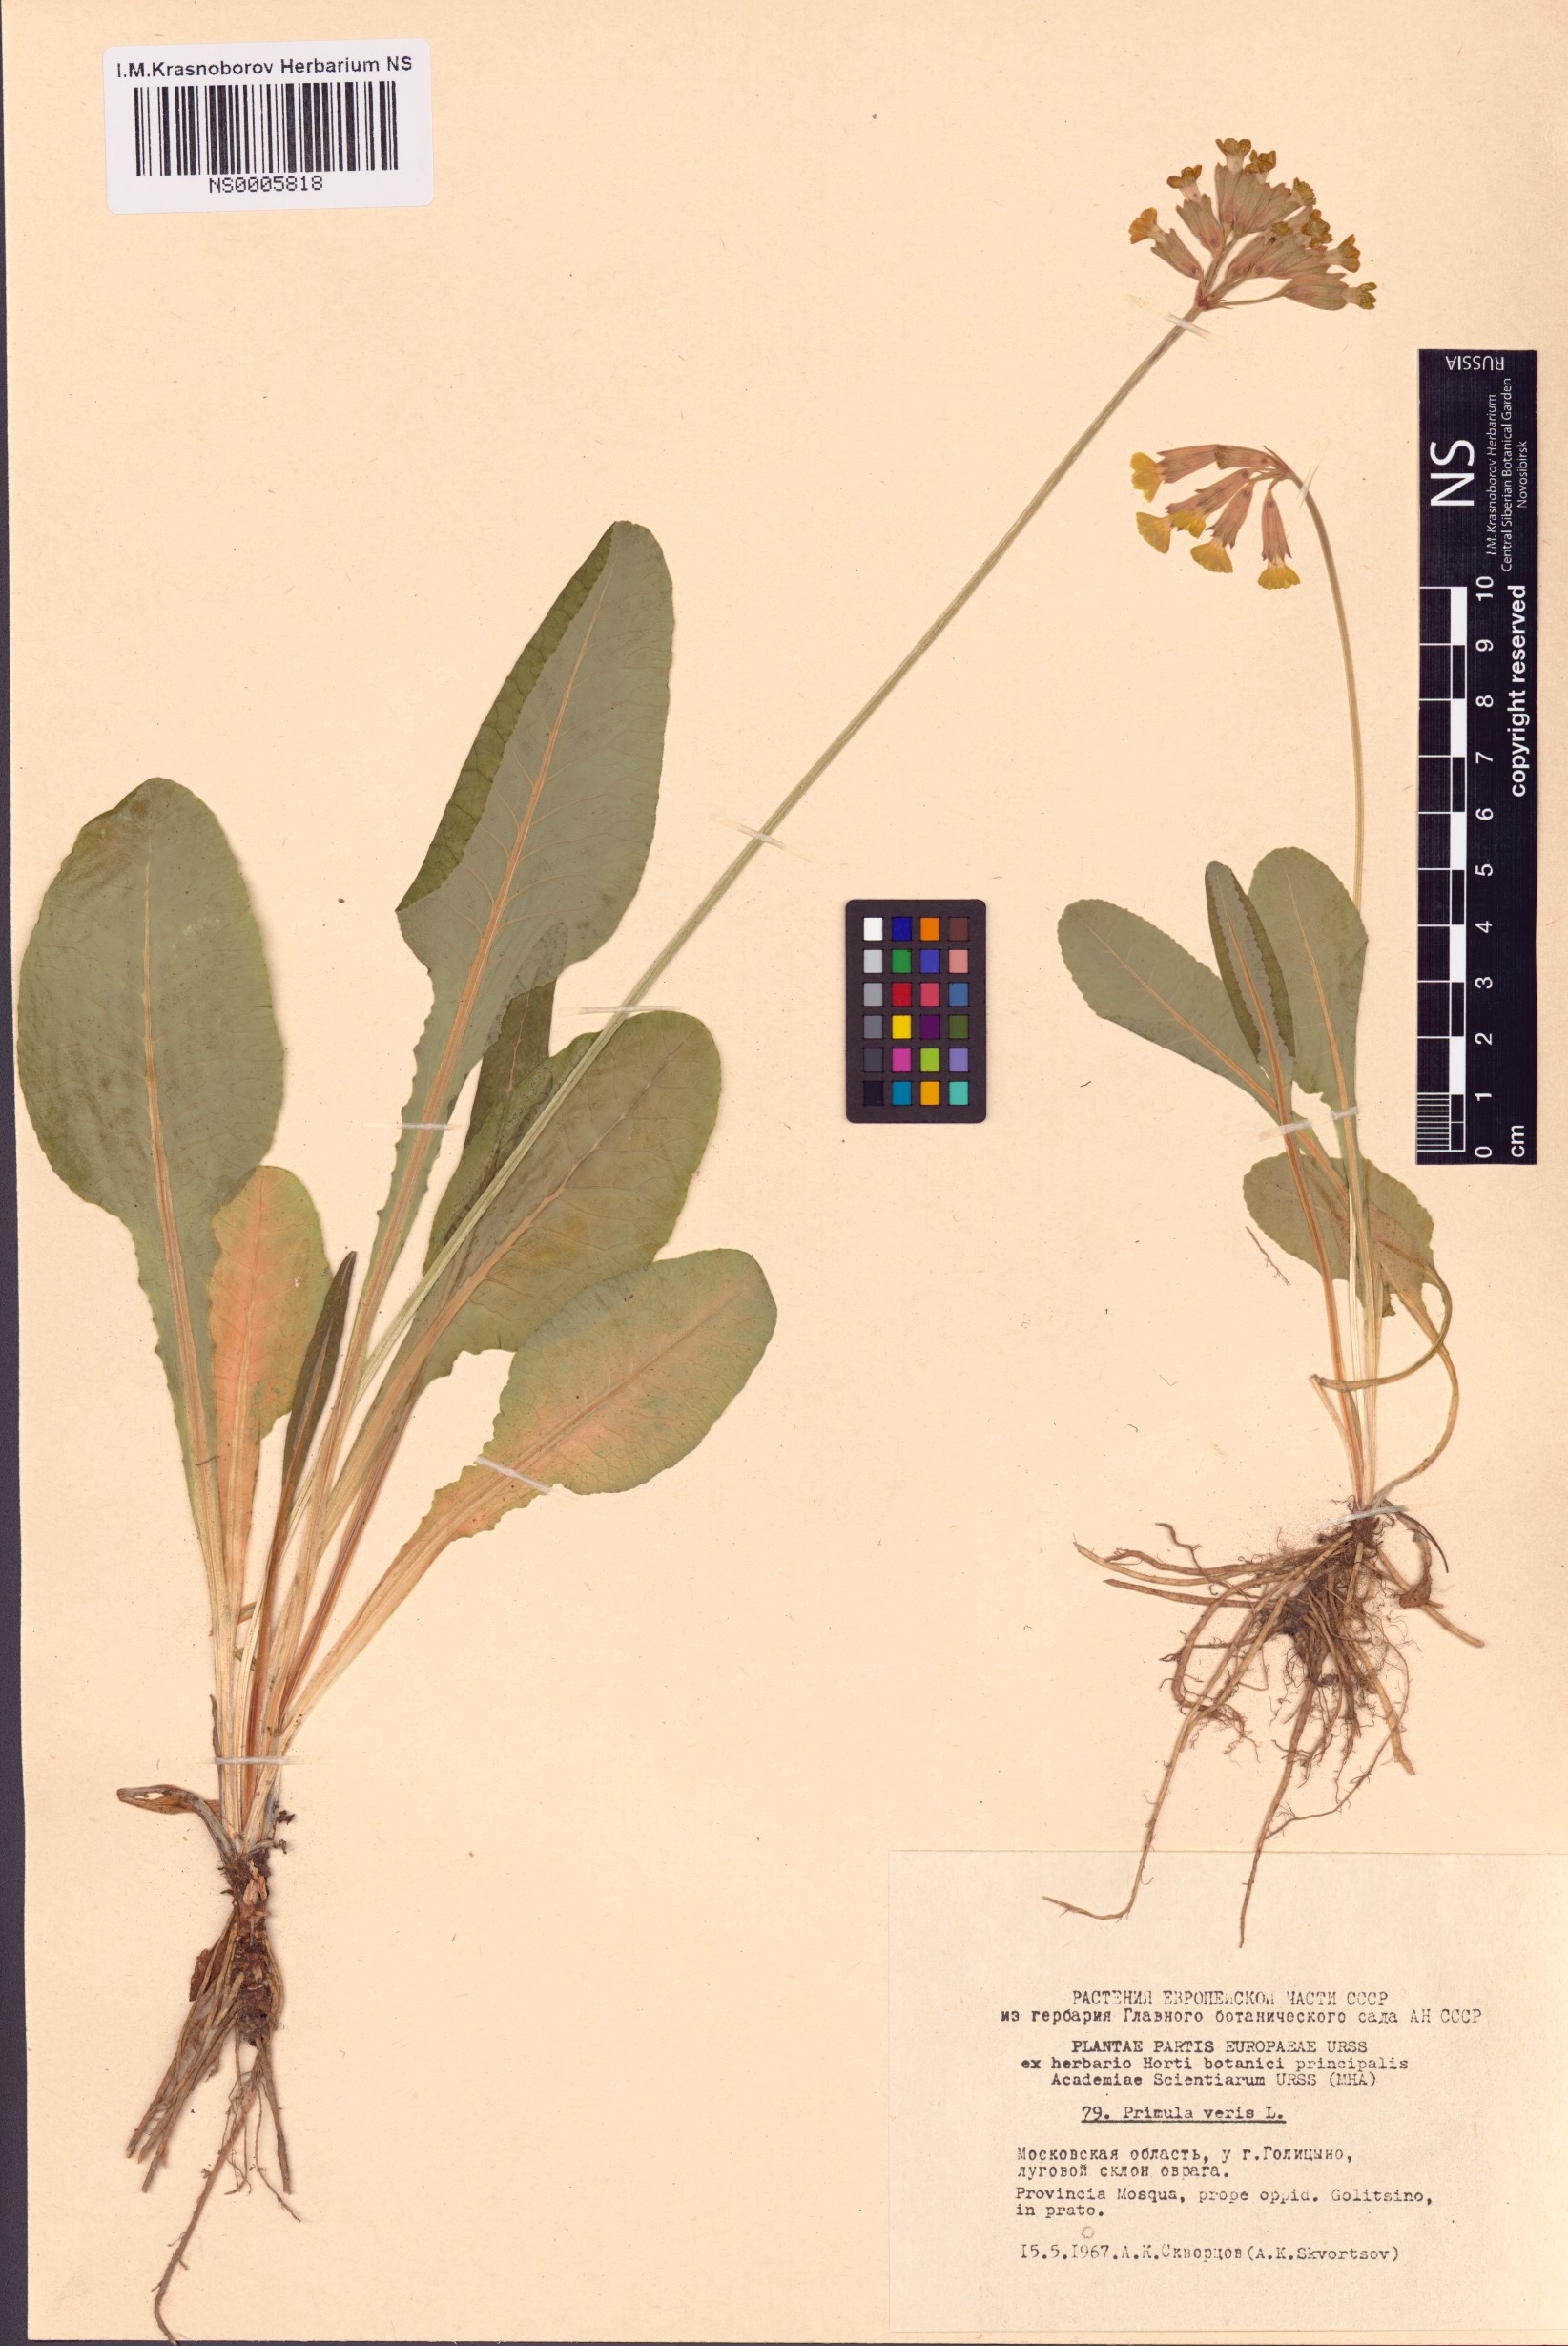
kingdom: Plantae
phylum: Tracheophyta
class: Magnoliopsida
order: Ericales
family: Primulaceae
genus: Primula
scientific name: Primula veris
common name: Cowslip
